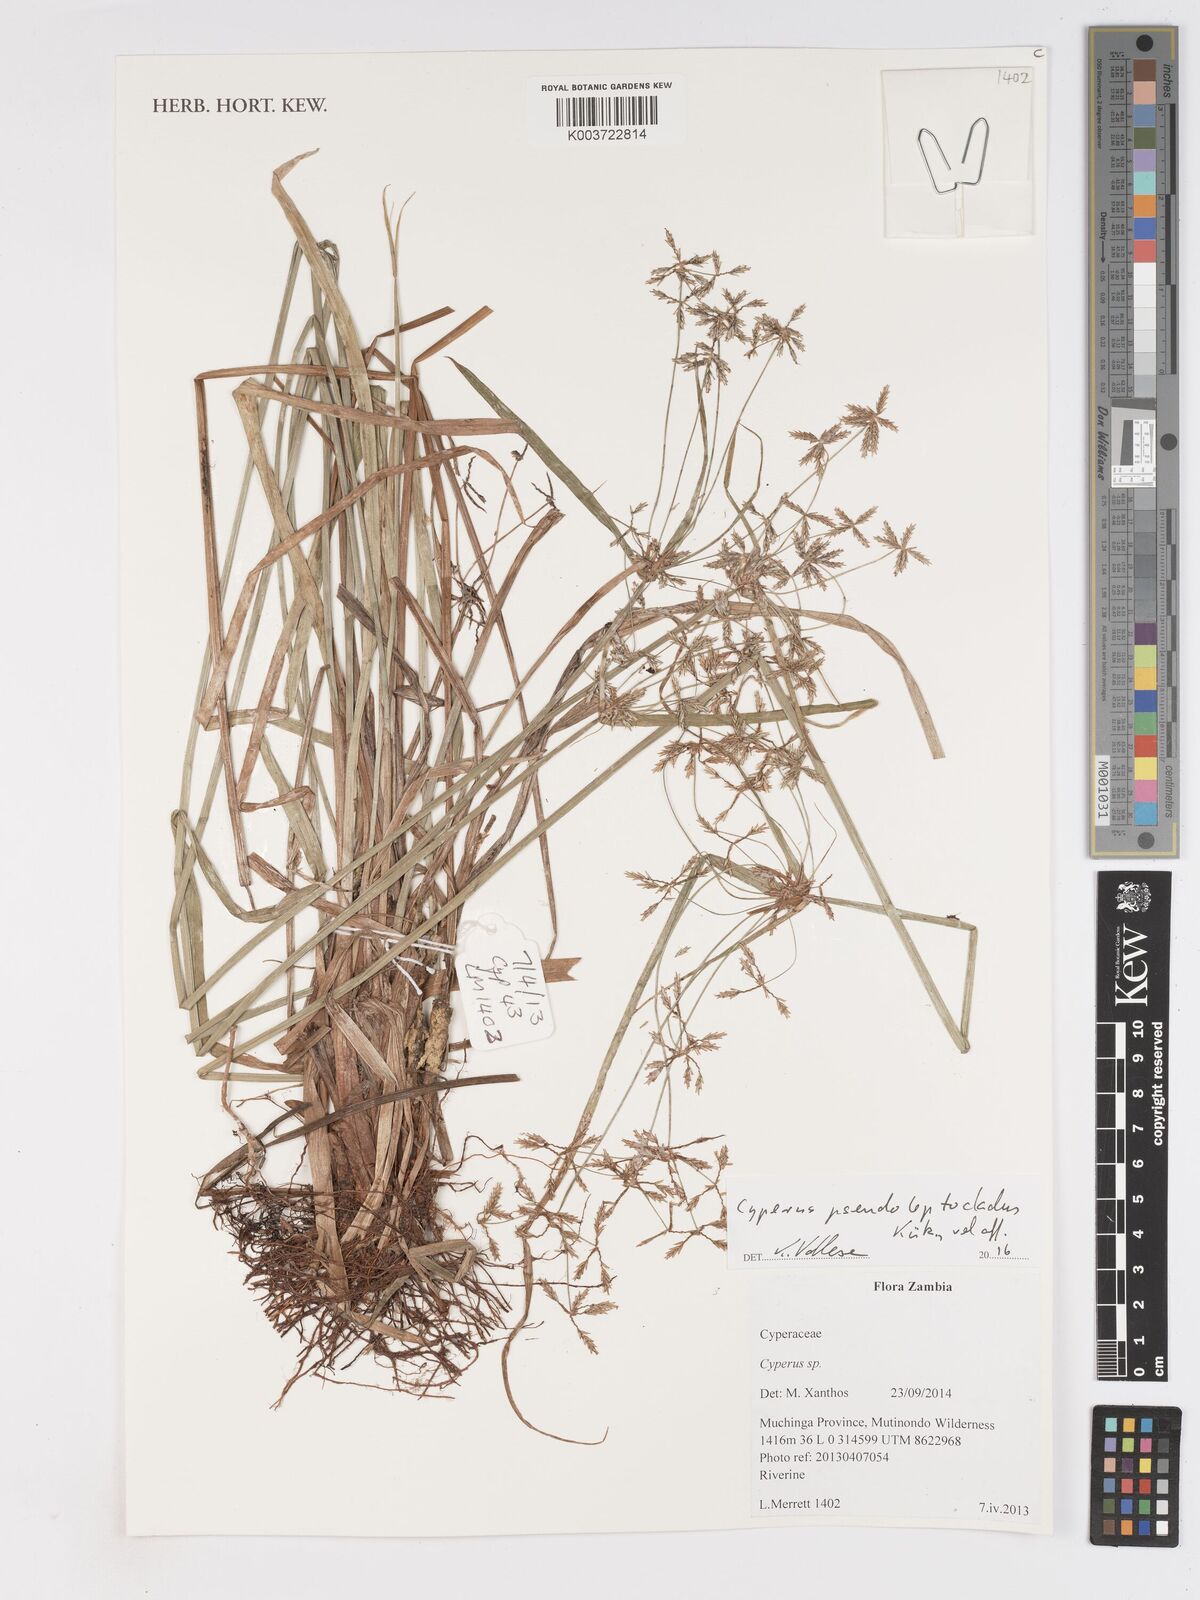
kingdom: Plantae
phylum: Tracheophyta
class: Liliopsida
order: Poales
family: Cyperaceae
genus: Cyperus
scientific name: Cyperus glaucophyllus
